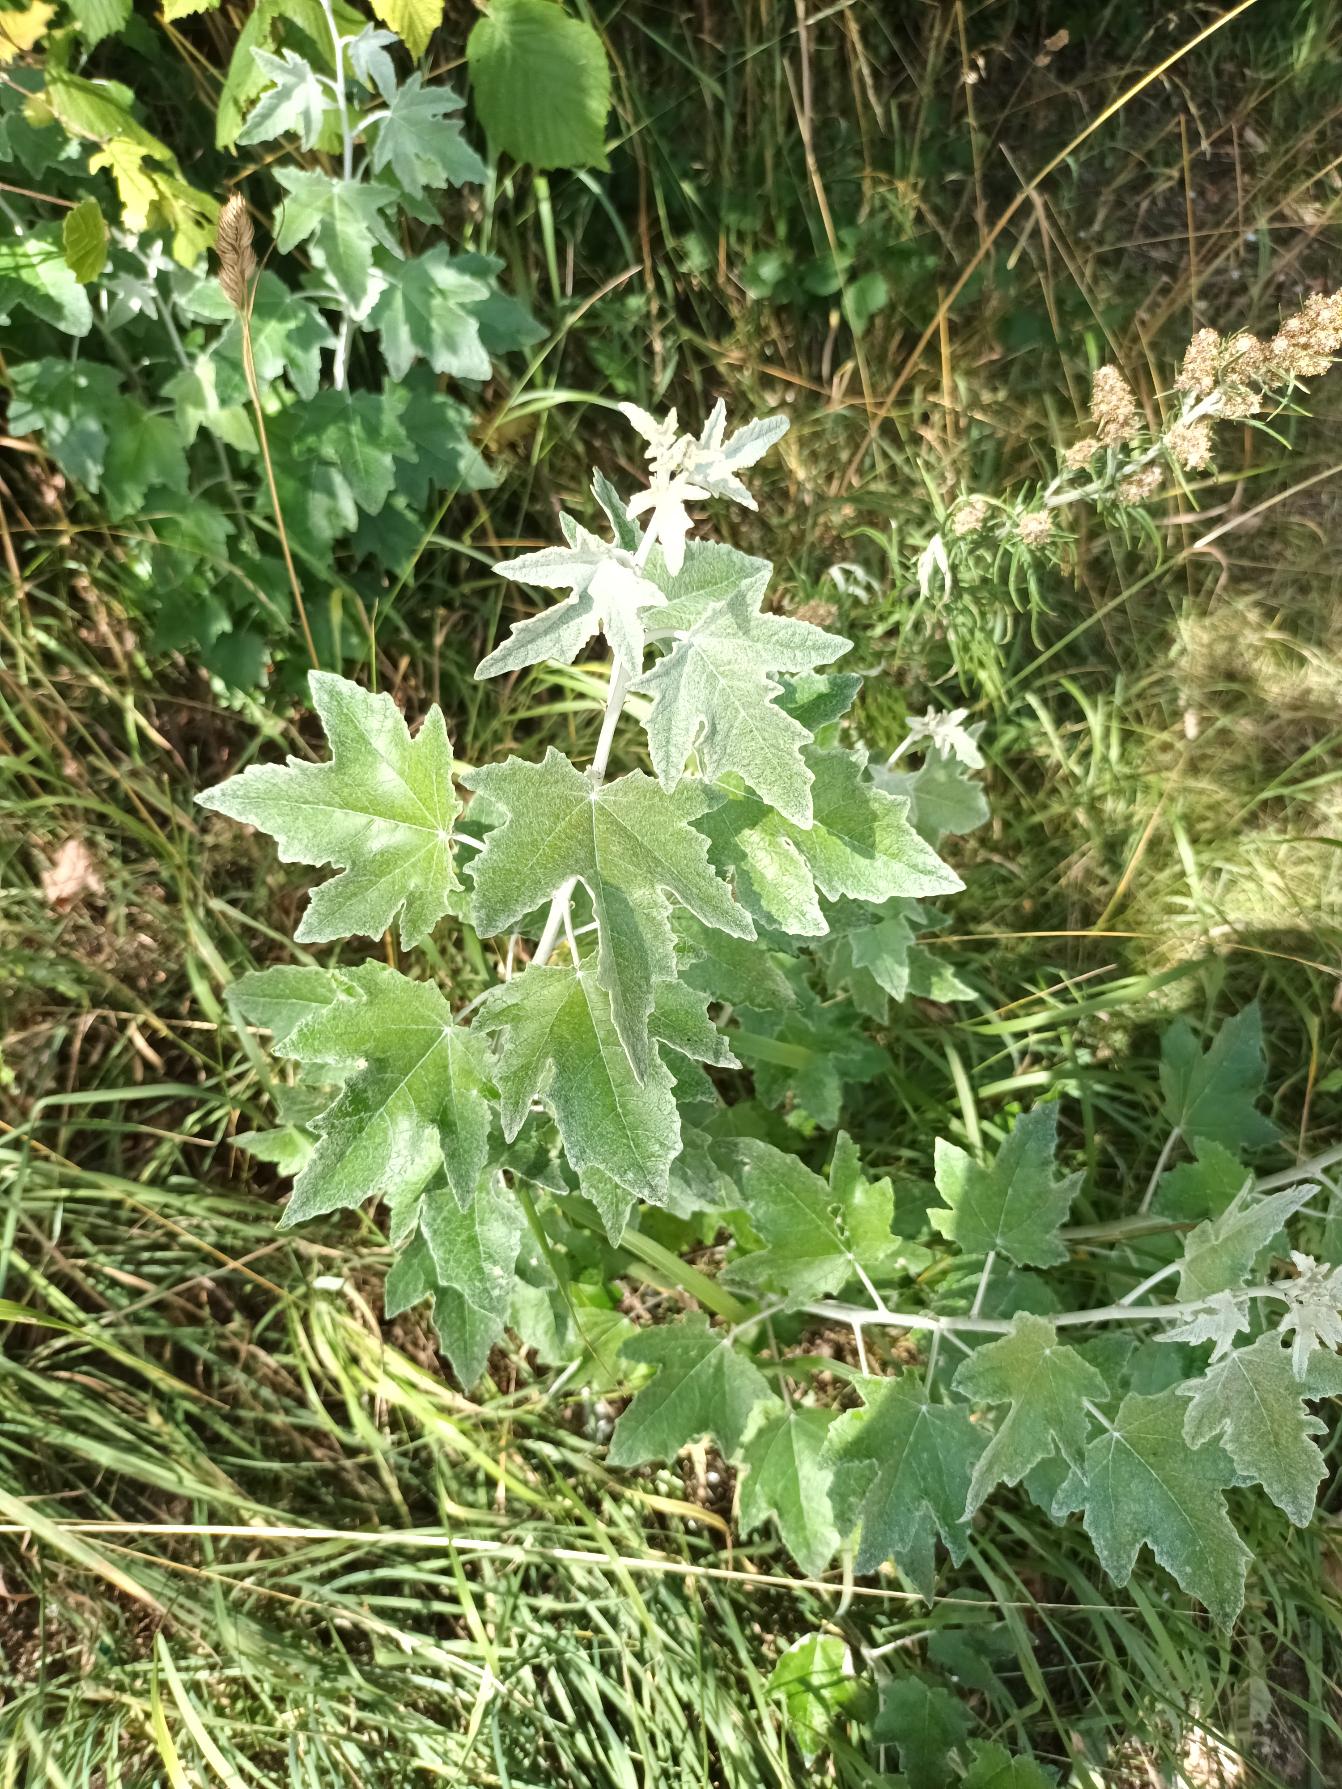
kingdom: Plantae
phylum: Tracheophyta
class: Magnoliopsida
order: Malpighiales
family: Salicaceae
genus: Populus
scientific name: Populus alba
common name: Sølv-poppel
